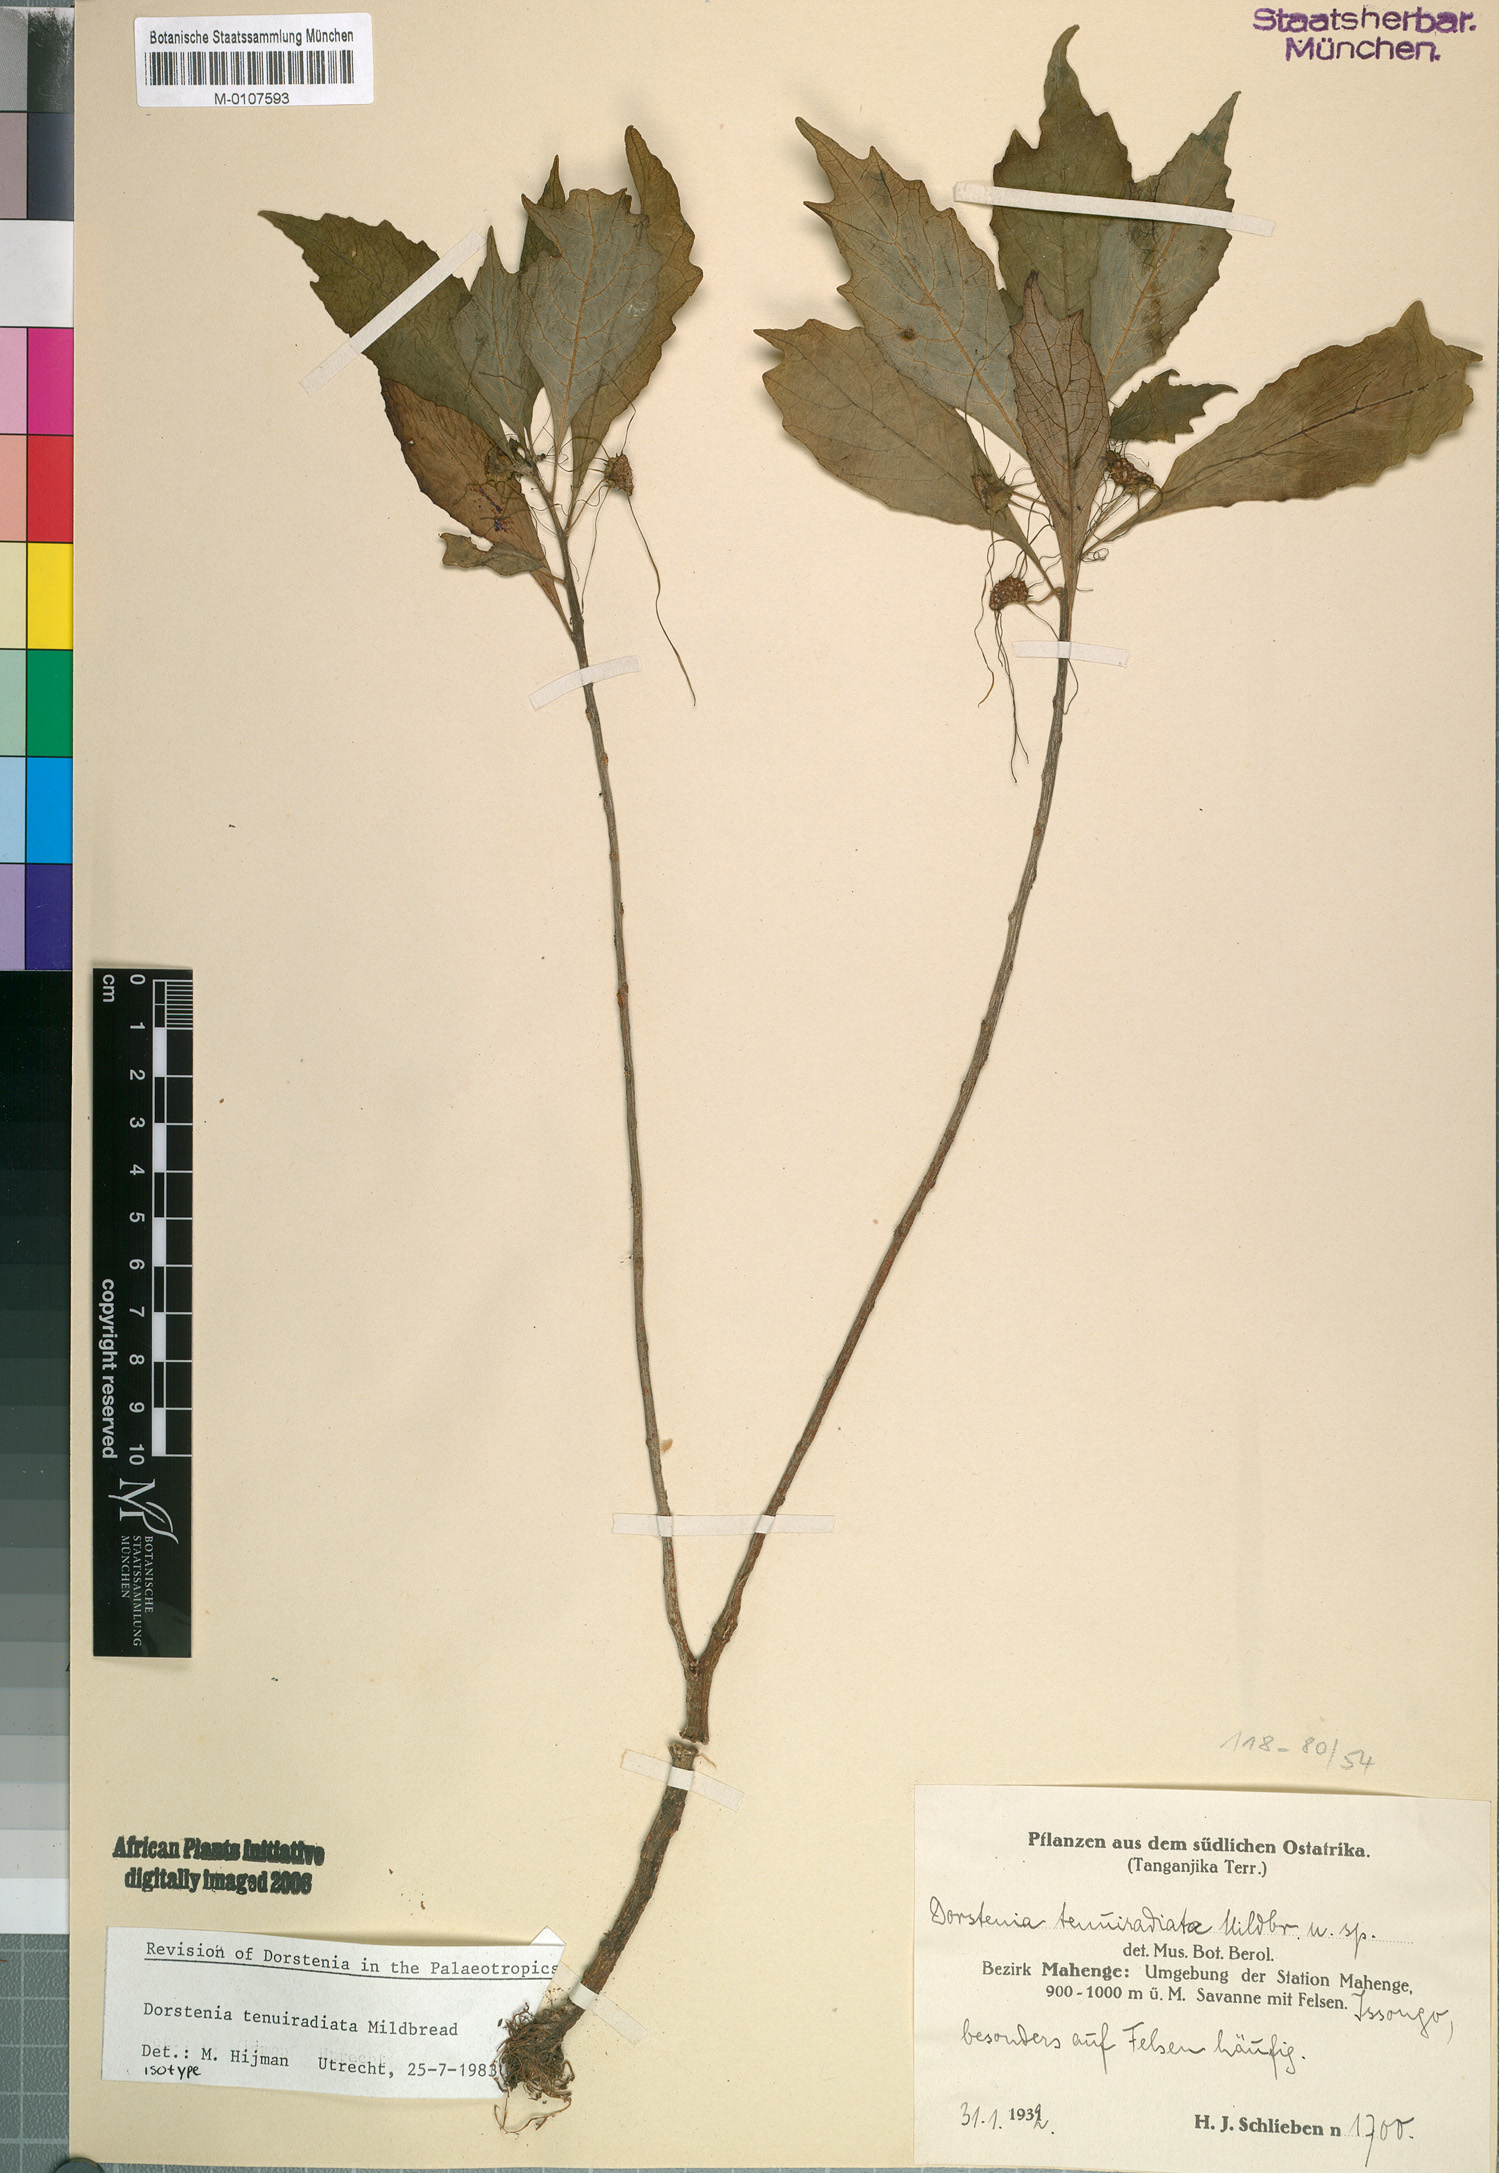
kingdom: Plantae
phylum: Tracheophyta
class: Magnoliopsida
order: Rosales
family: Moraceae
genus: Dorstenia
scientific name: Dorstenia tenuiradiata
